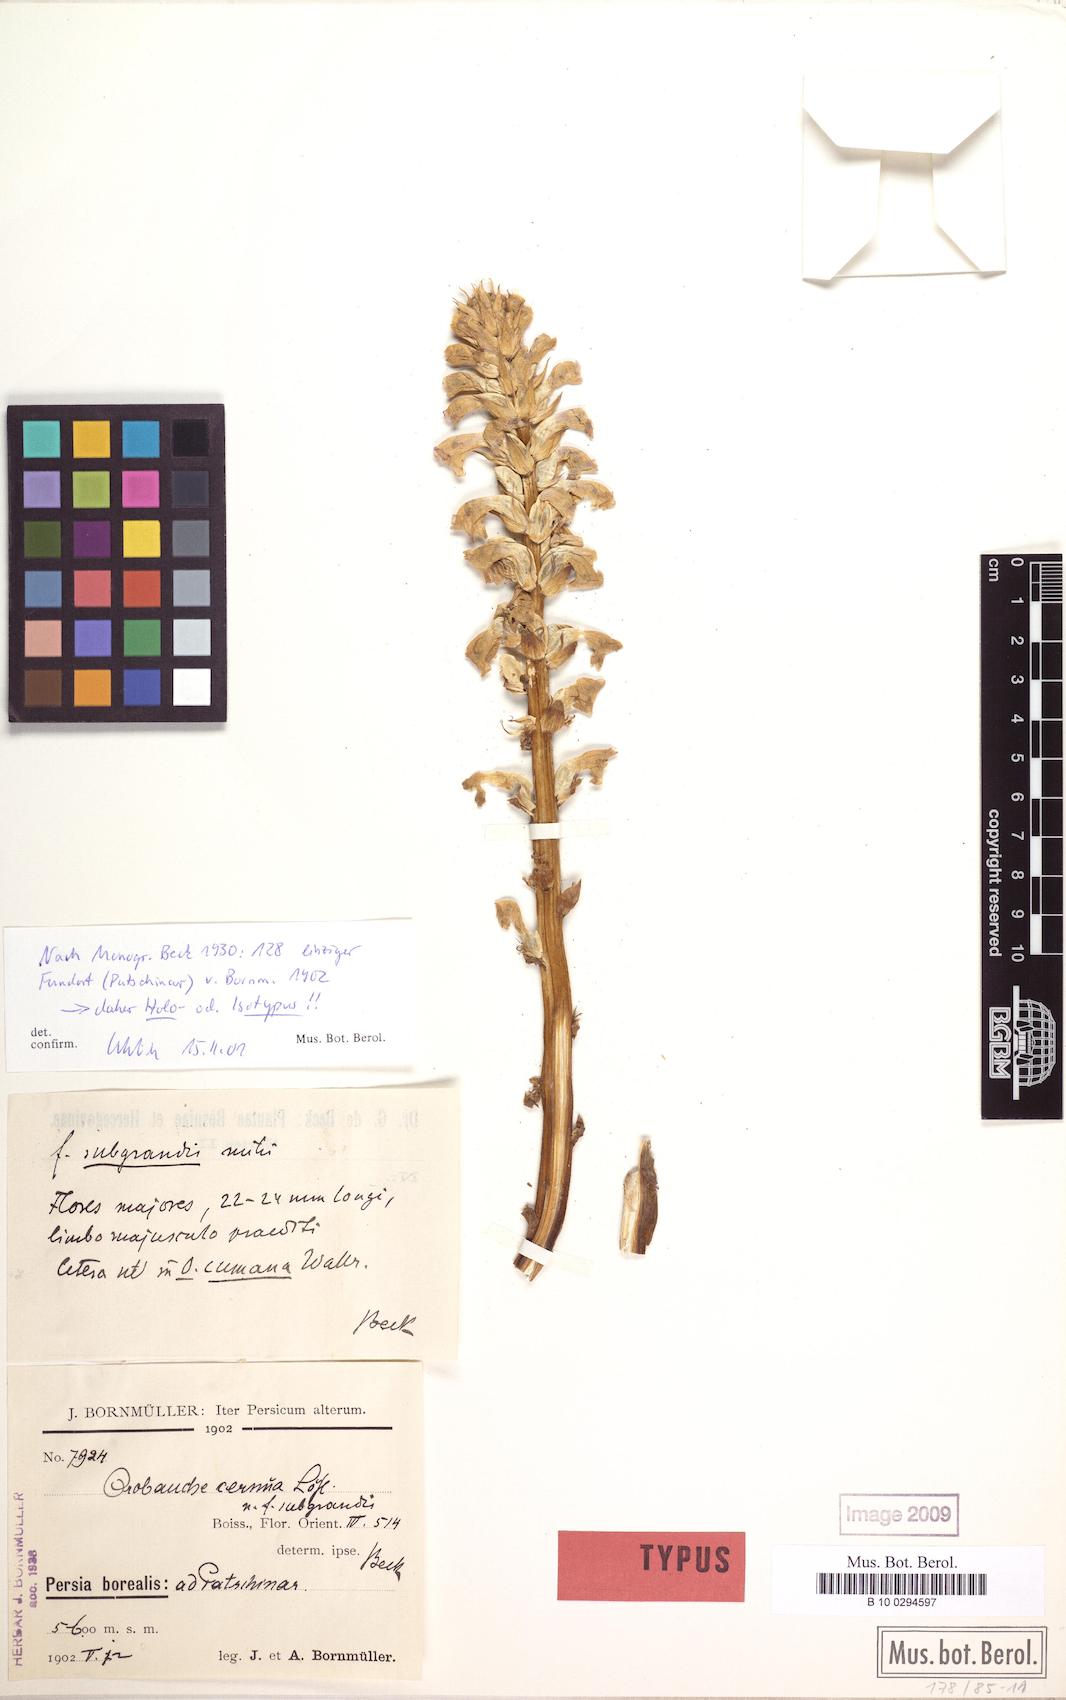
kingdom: Plantae
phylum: Tracheophyta
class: Magnoliopsida
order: Lamiales
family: Orobanchaceae
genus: Orobanche
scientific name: Orobanche cernua
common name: Australian broomrape
